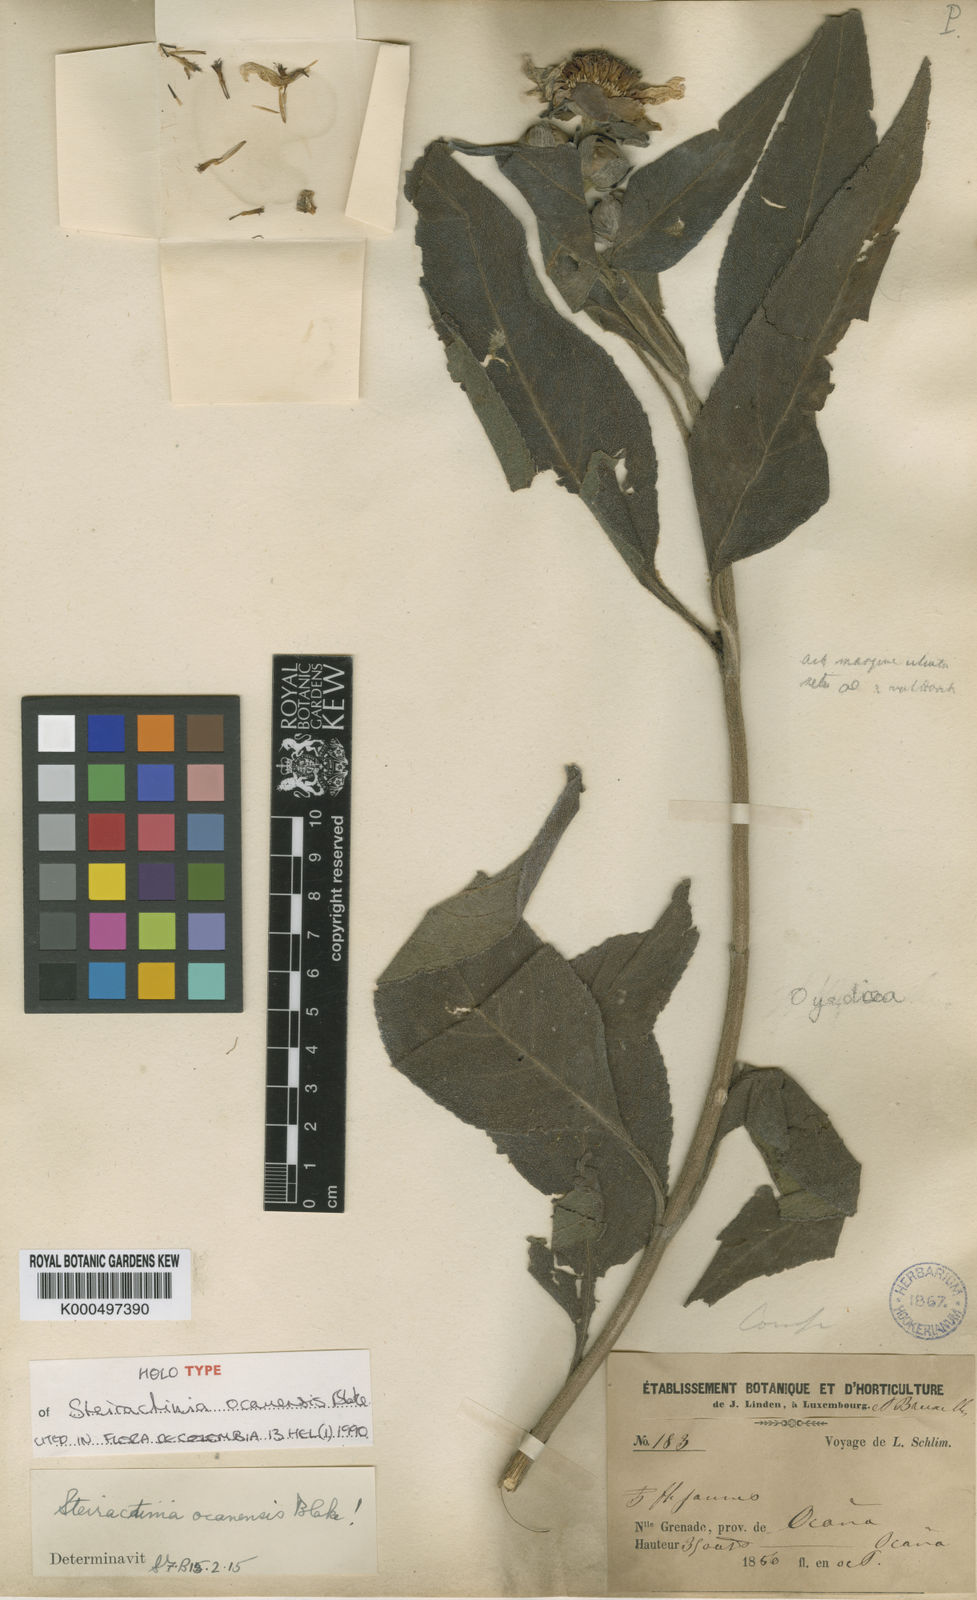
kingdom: Plantae
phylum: Tracheophyta
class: Magnoliopsida
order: Asterales
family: Asteraceae
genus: Steiractinia
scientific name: Steiractinia ocanensis
